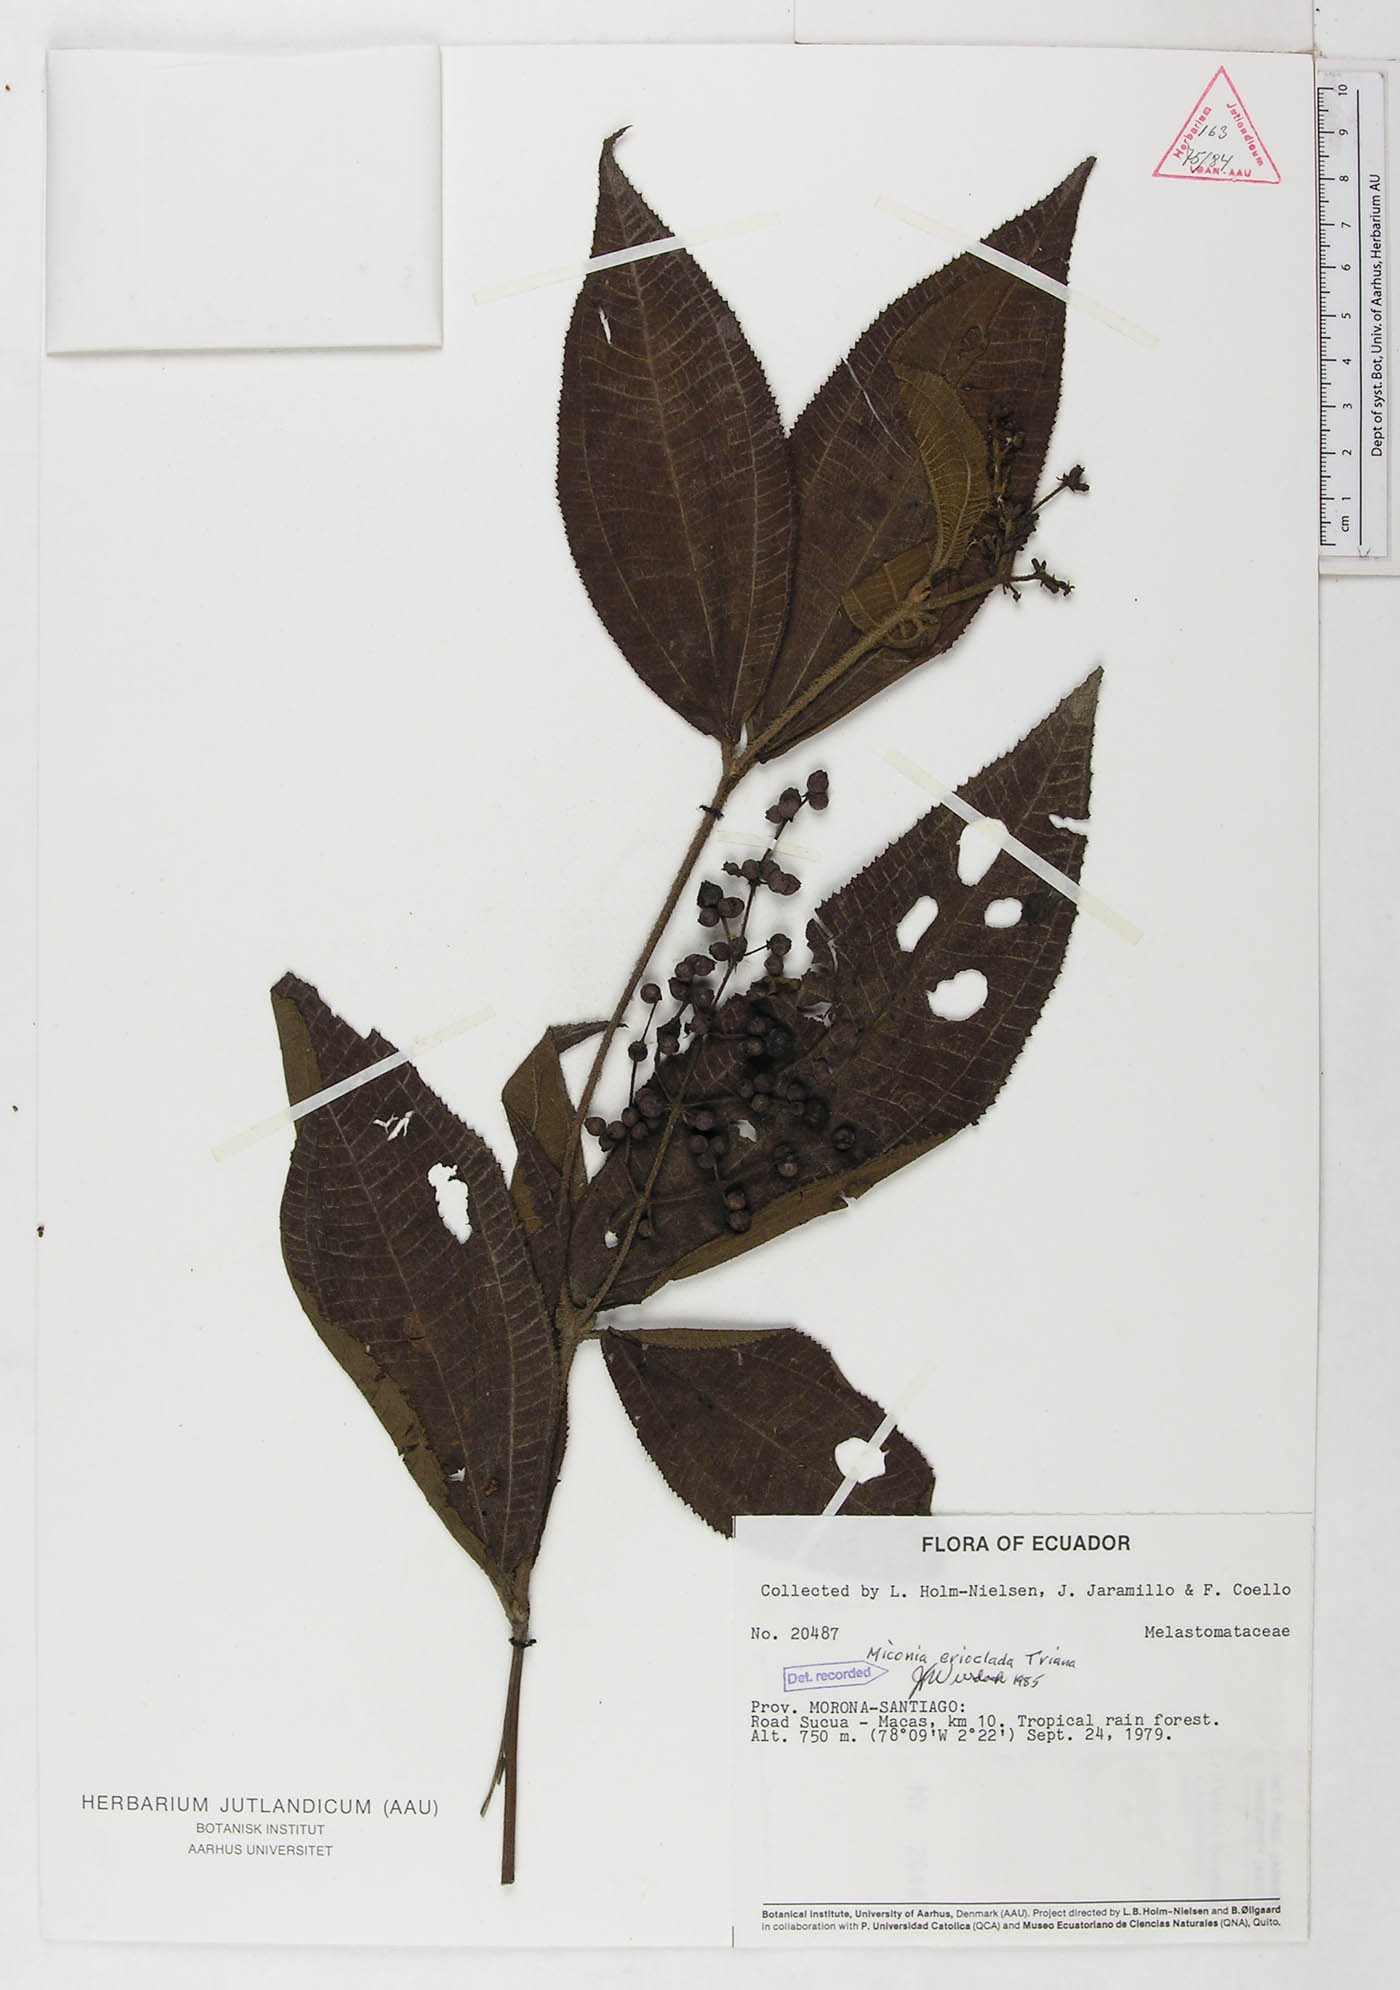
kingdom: Plantae
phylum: Tracheophyta
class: Magnoliopsida
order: Myrtales
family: Melastomataceae
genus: Miconia
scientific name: Miconia erioclada
